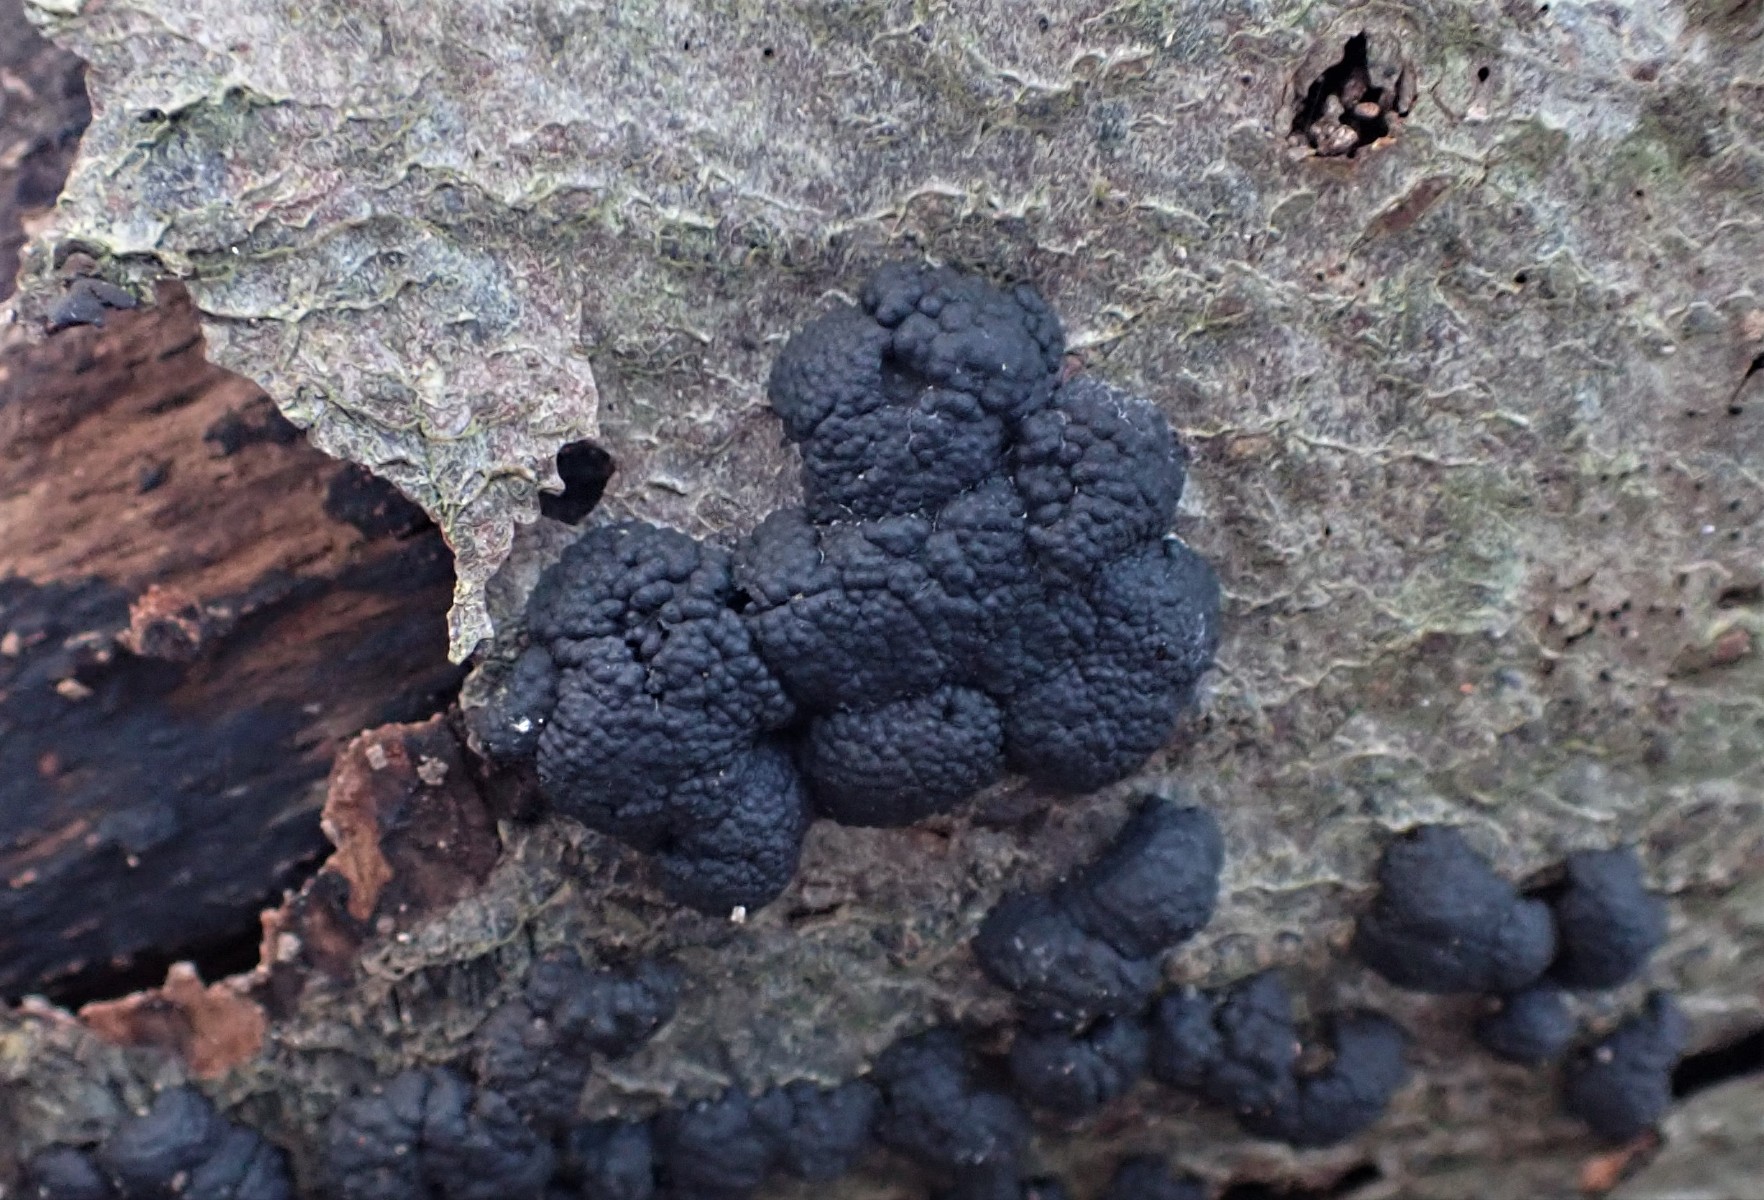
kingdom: Fungi
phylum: Ascomycota
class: Sordariomycetes
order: Xylariales
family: Hypoxylaceae
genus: Jackrogersella
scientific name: Jackrogersella cohaerens
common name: sammenflydende kulbær
